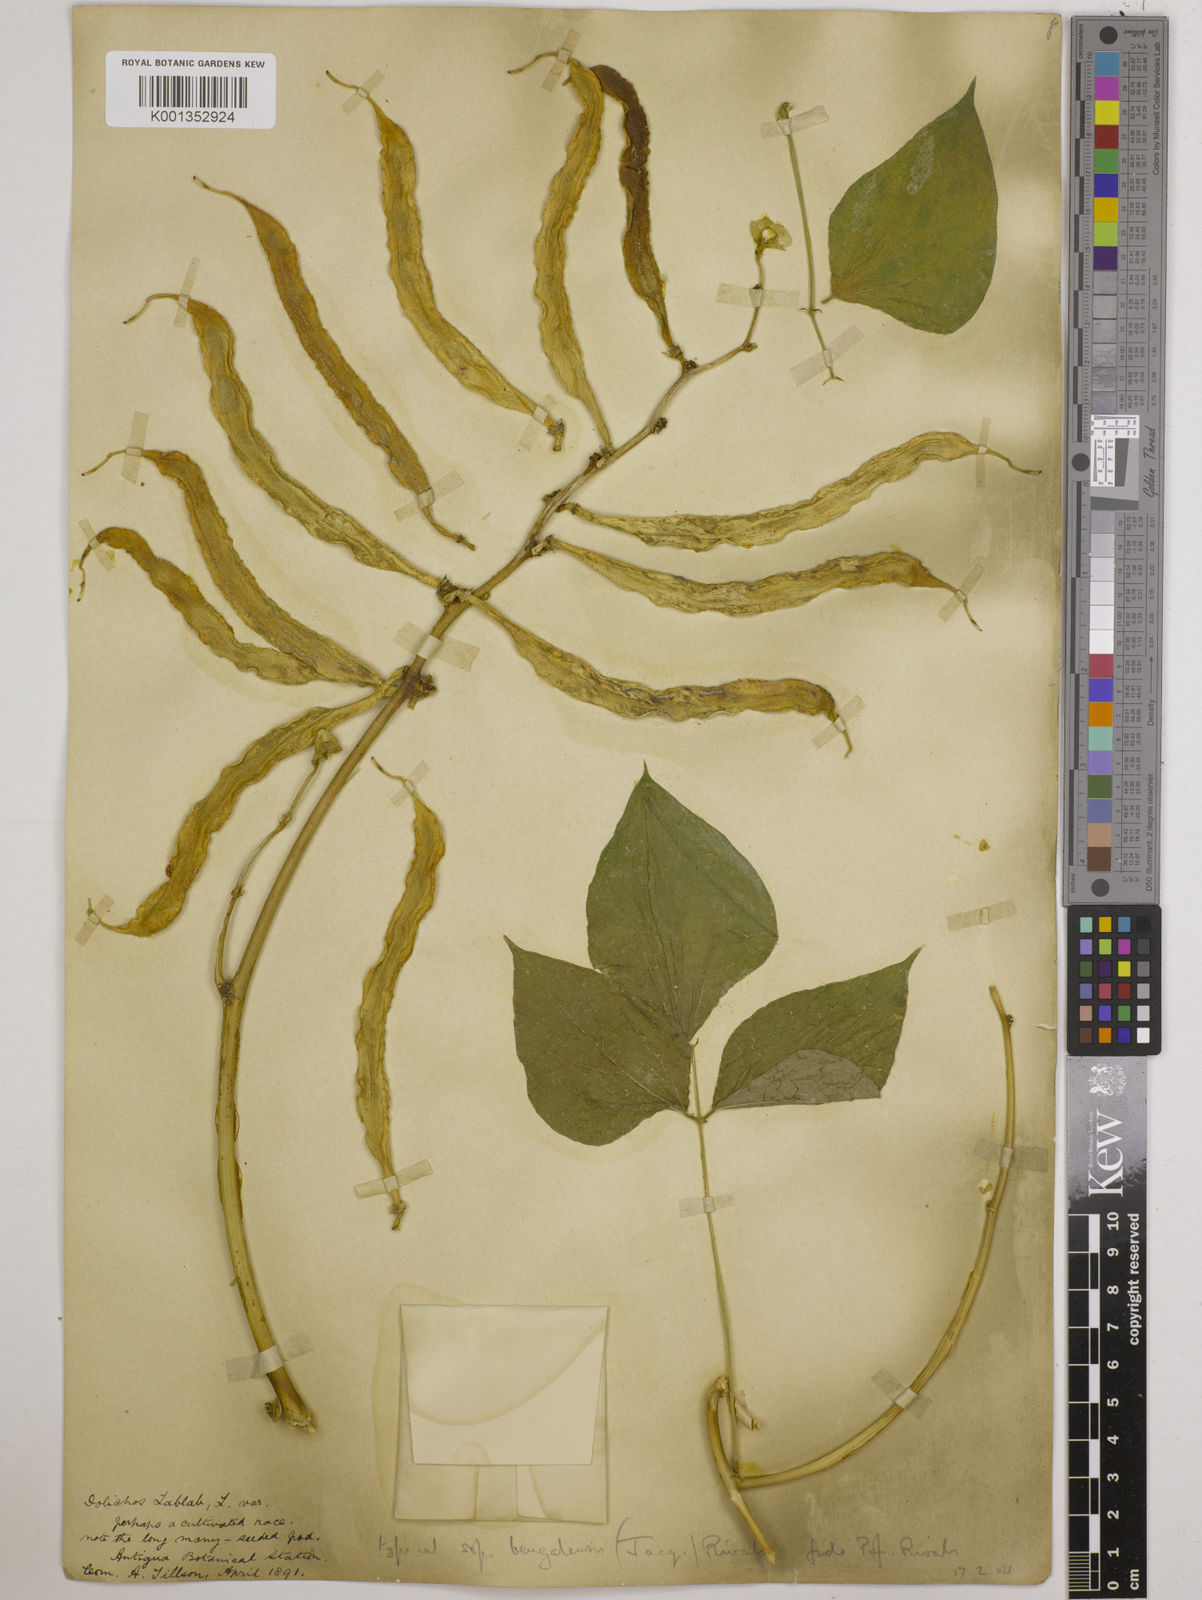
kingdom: Plantae
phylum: Tracheophyta
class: Magnoliopsida
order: Fabales
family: Fabaceae
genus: Lablab
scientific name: Lablab purpureus
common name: Lablab-bean
